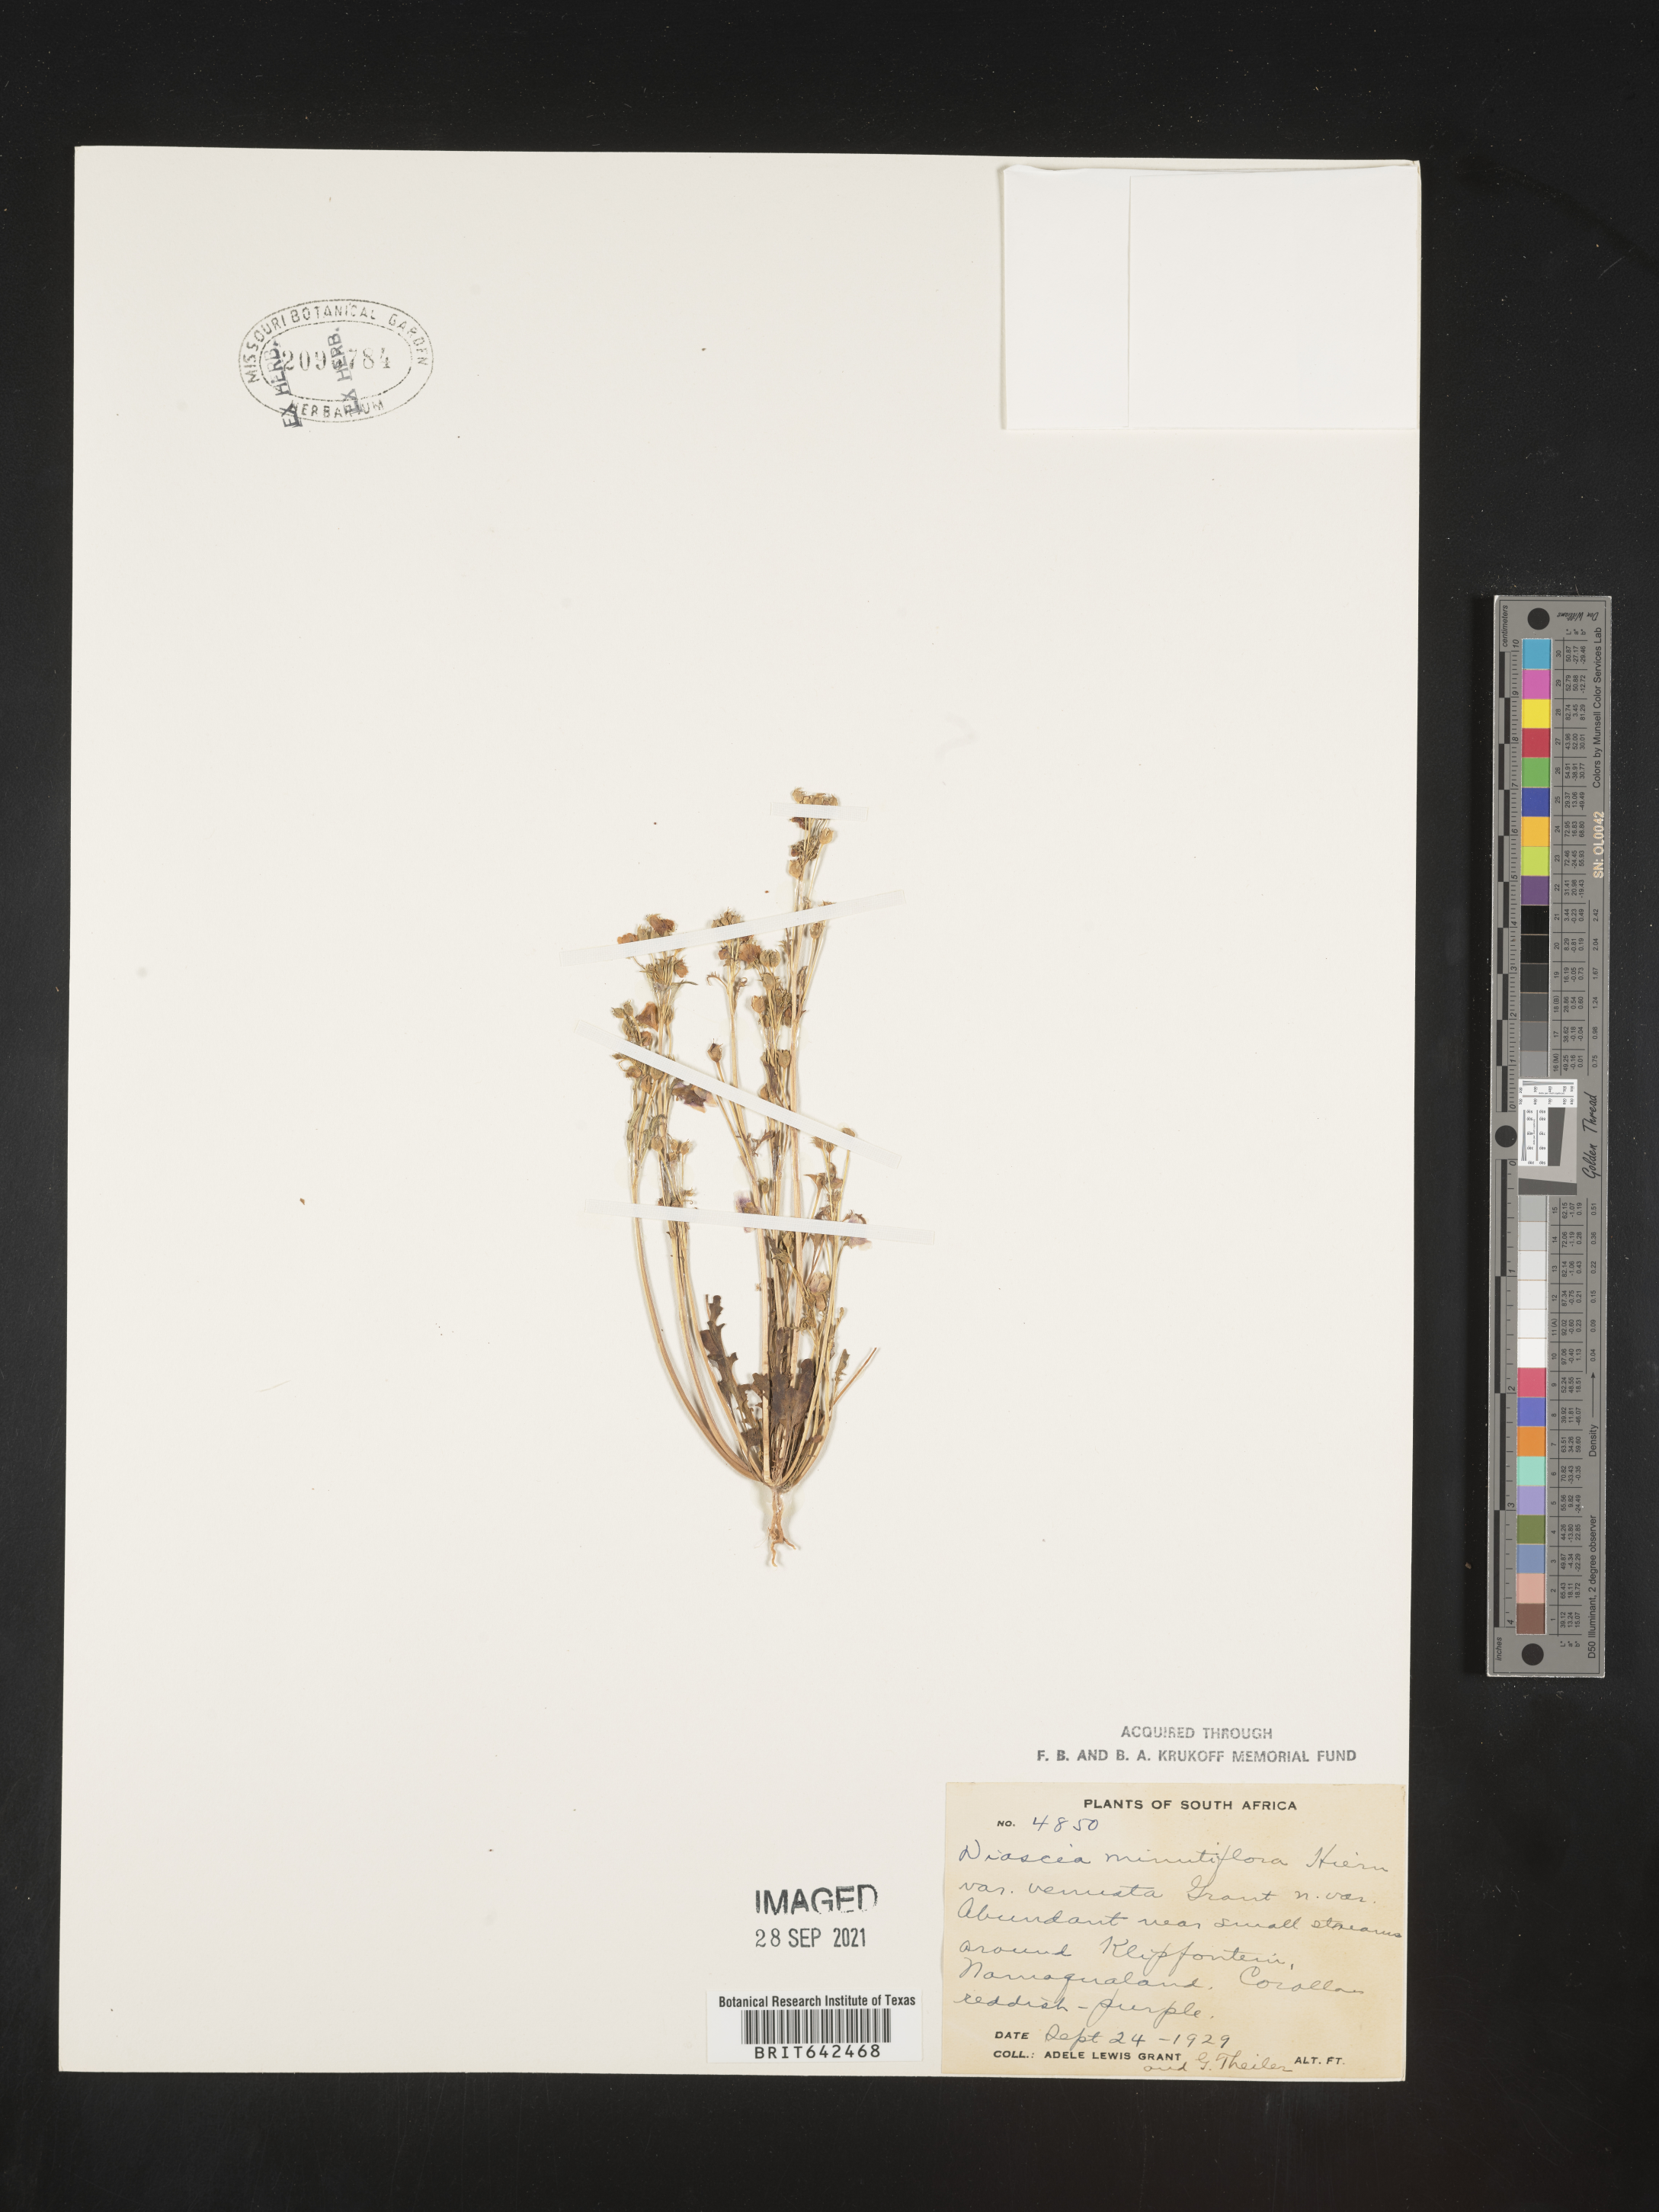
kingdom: Plantae
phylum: Tracheophyta
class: Magnoliopsida
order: Lamiales
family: Scrophulariaceae
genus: Diascia
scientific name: Diascia
